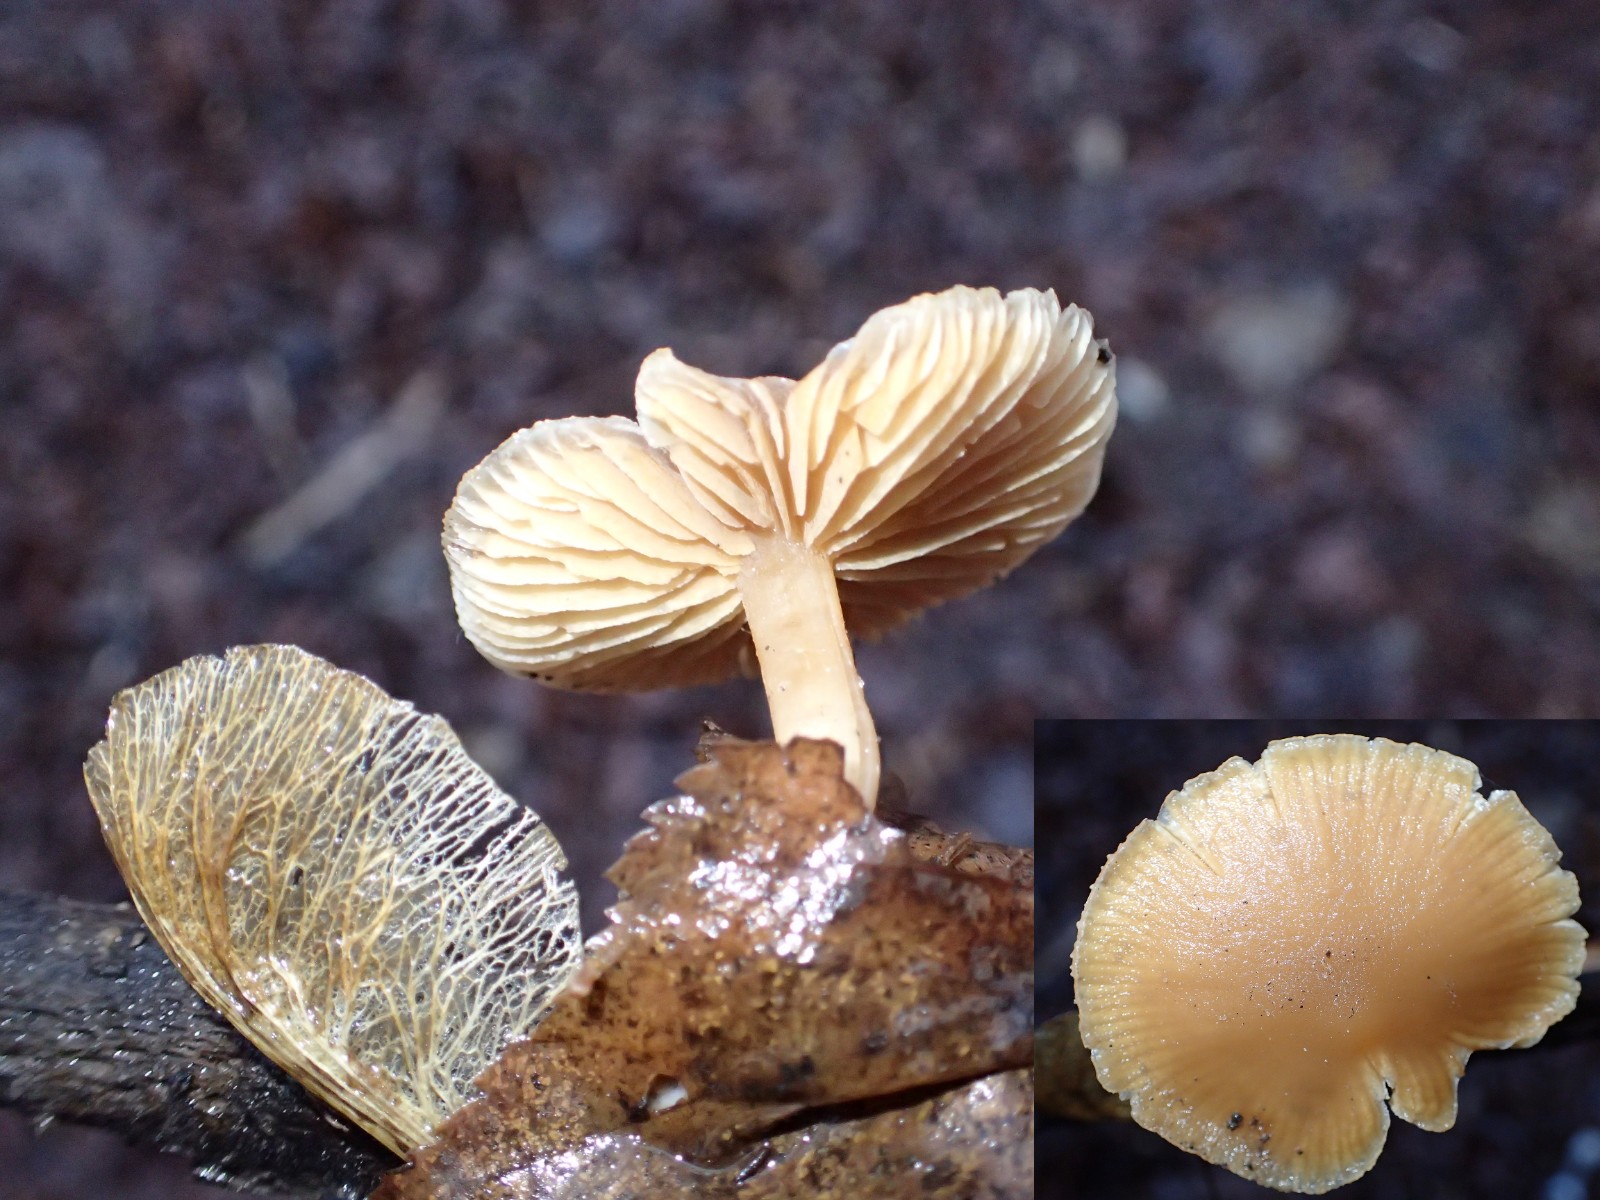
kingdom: Fungi
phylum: Basidiomycota
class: Agaricomycetes
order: Agaricales
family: Tubariaceae
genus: Tubaria
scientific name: Tubaria furfuracea
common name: kliddet fnughat
